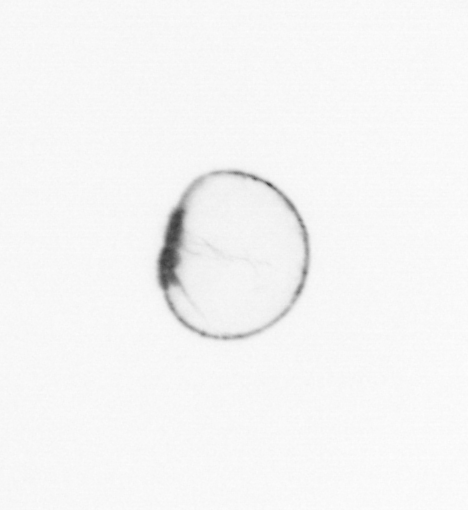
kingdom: Chromista
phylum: Myzozoa
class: Dinophyceae
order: Noctilucales
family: Noctilucaceae
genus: Noctiluca
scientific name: Noctiluca scintillans
